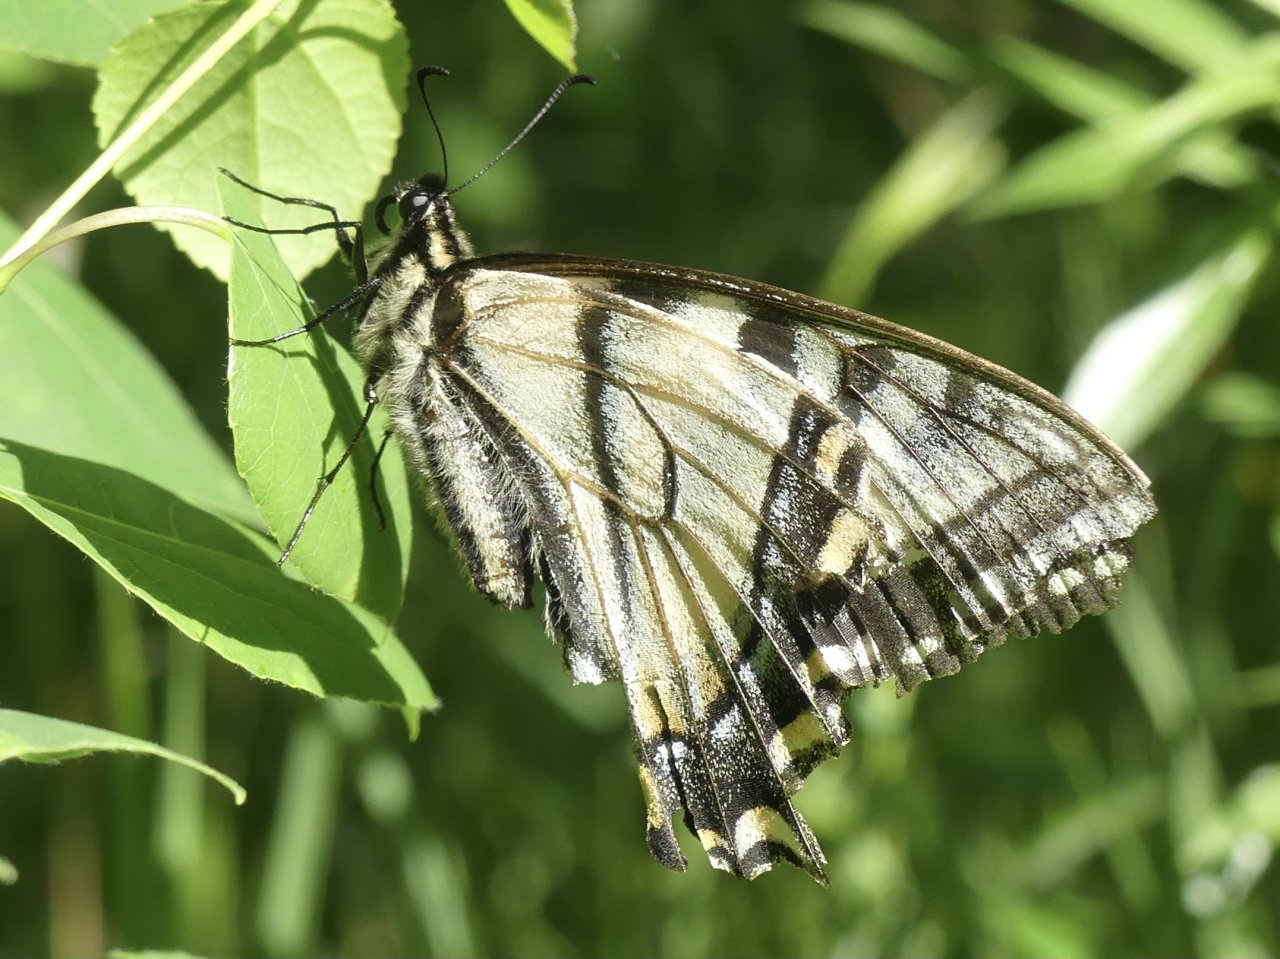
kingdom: Animalia
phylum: Arthropoda
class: Insecta
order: Lepidoptera
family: Papilionidae
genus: Pterourus
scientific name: Pterourus canadensis
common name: Canadian Tiger Swallowtail
